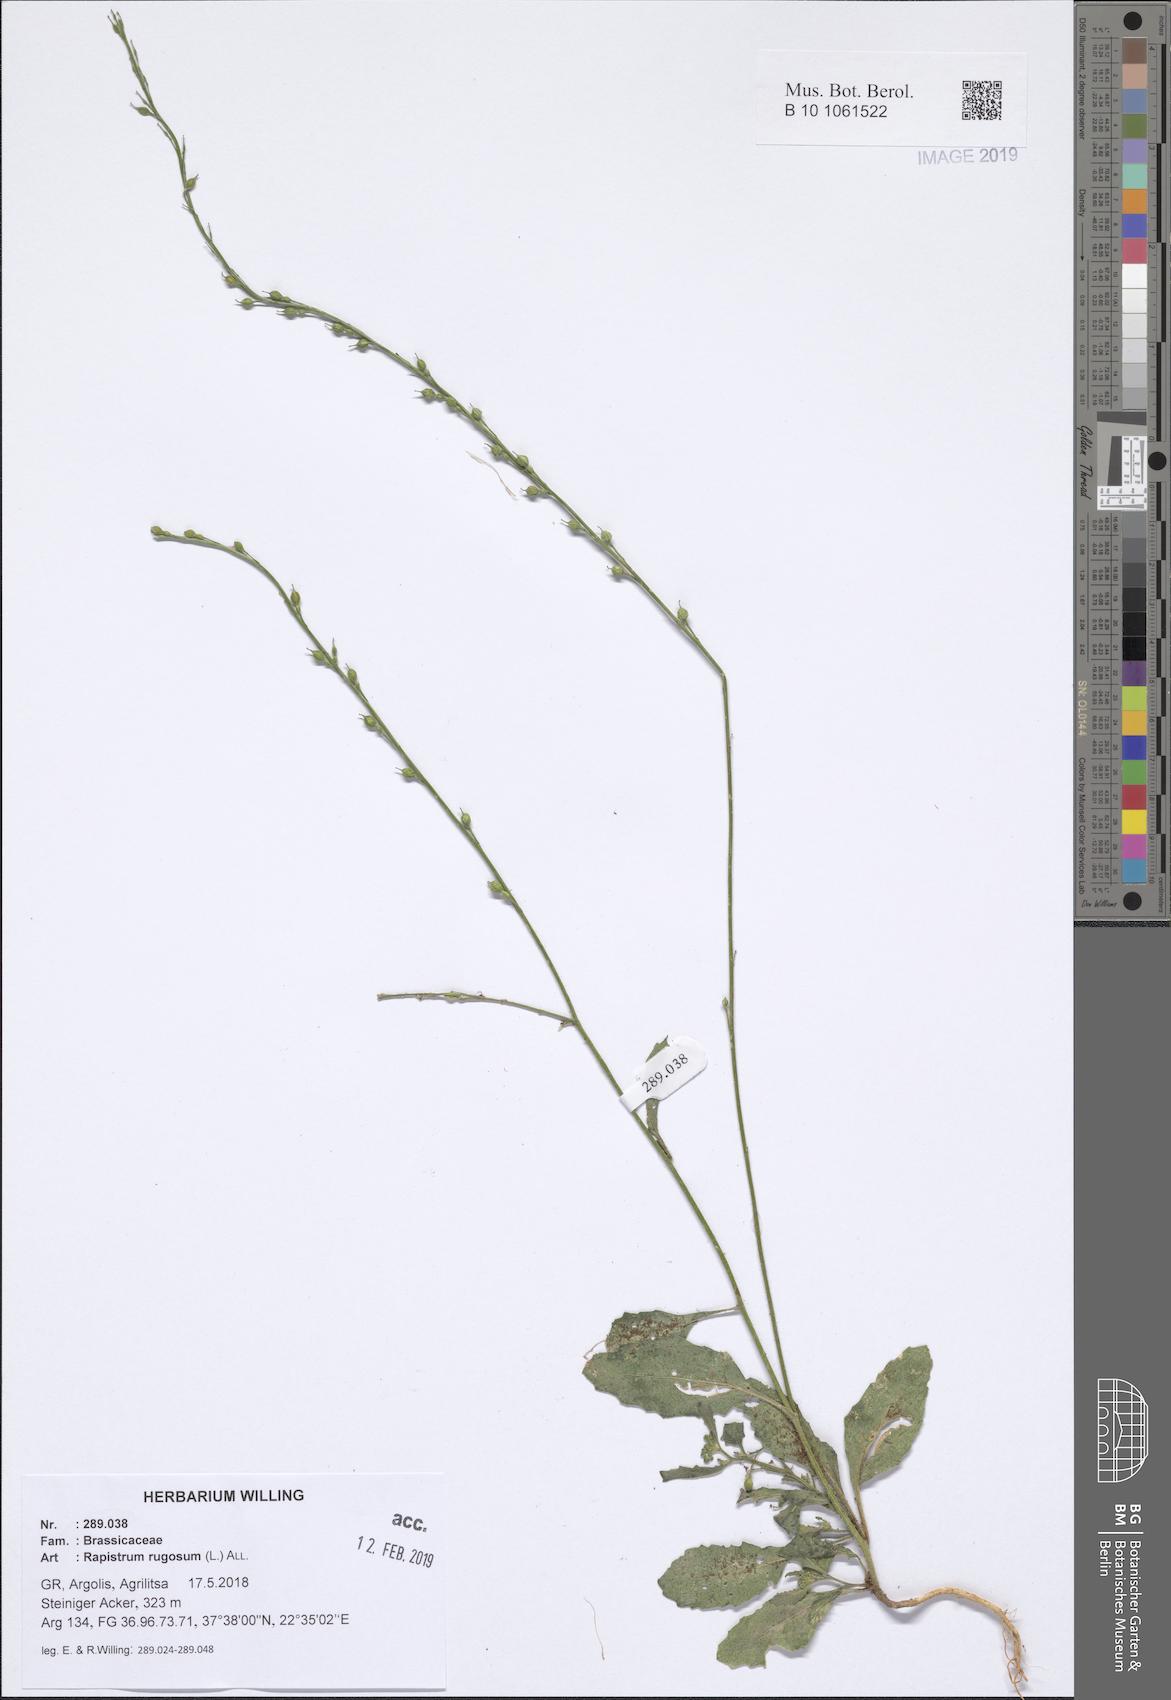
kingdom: Plantae
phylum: Tracheophyta
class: Magnoliopsida
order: Brassicales
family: Brassicaceae
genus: Rapistrum
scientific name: Rapistrum rugosum
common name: Annual bastardcabbage
